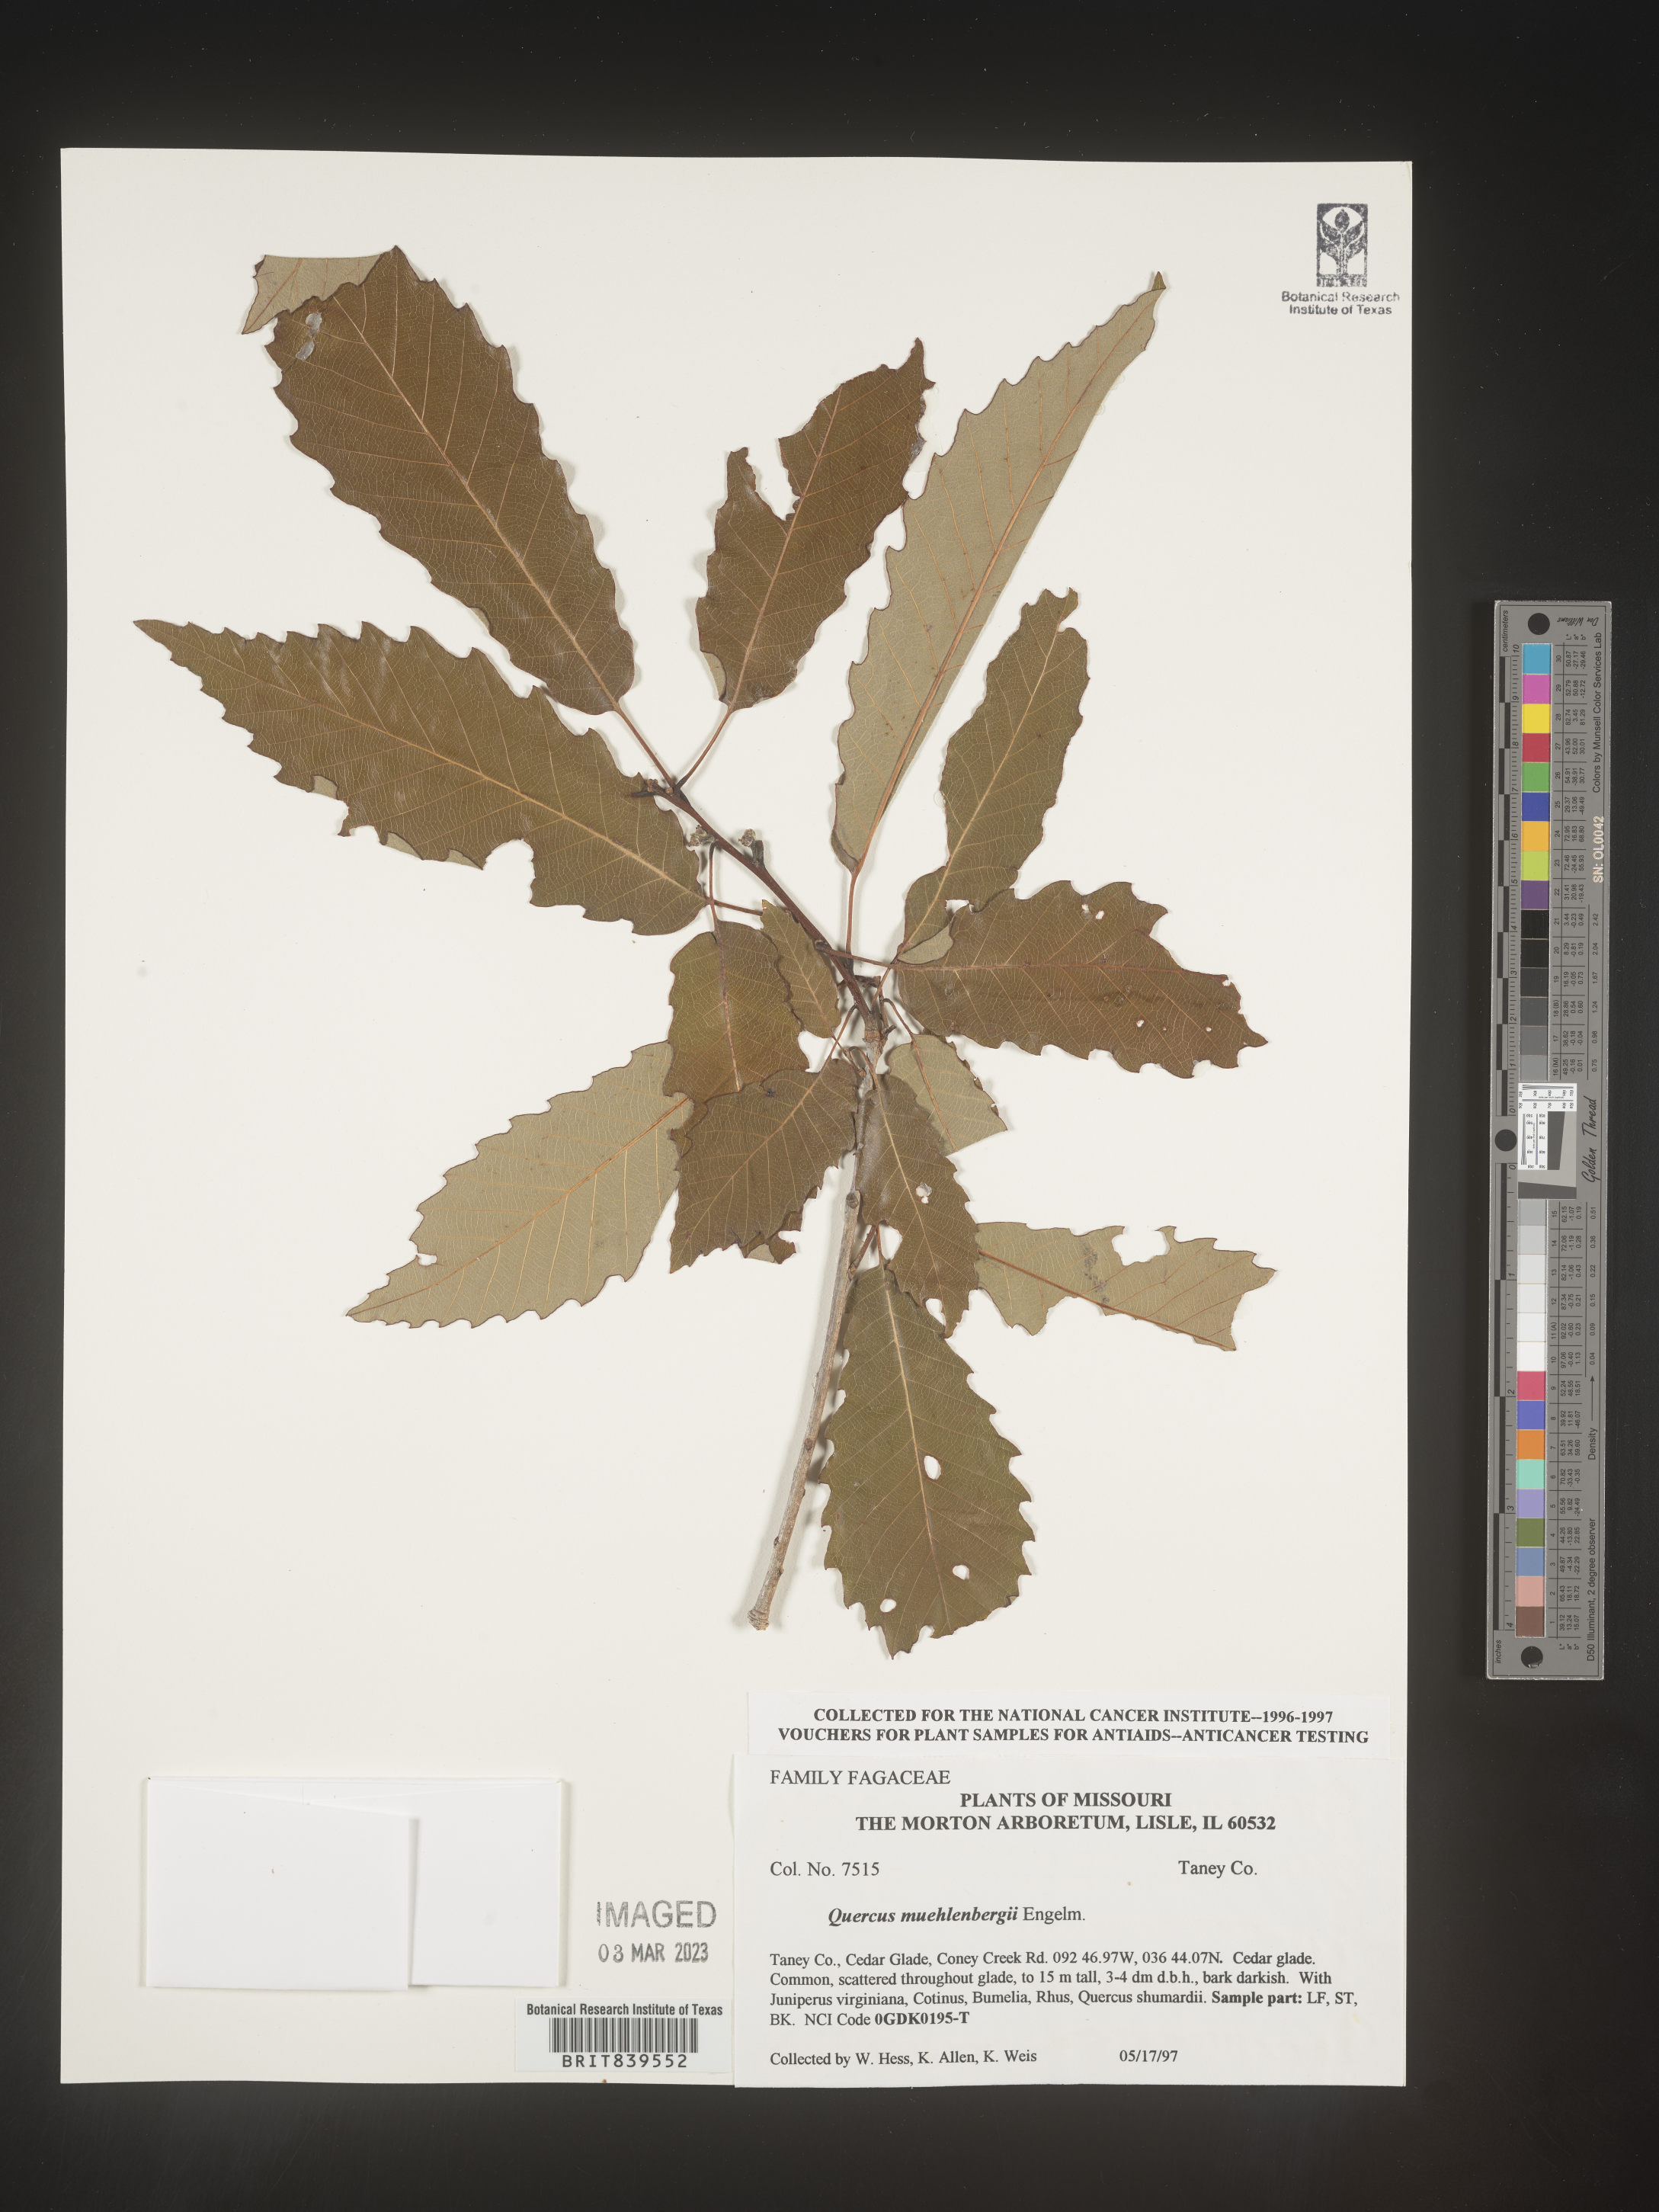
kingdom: Plantae
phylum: Tracheophyta
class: Magnoliopsida
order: Fagales
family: Fagaceae
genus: Quercus
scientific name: Quercus muehlenbergii
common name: Chinkapin oak
